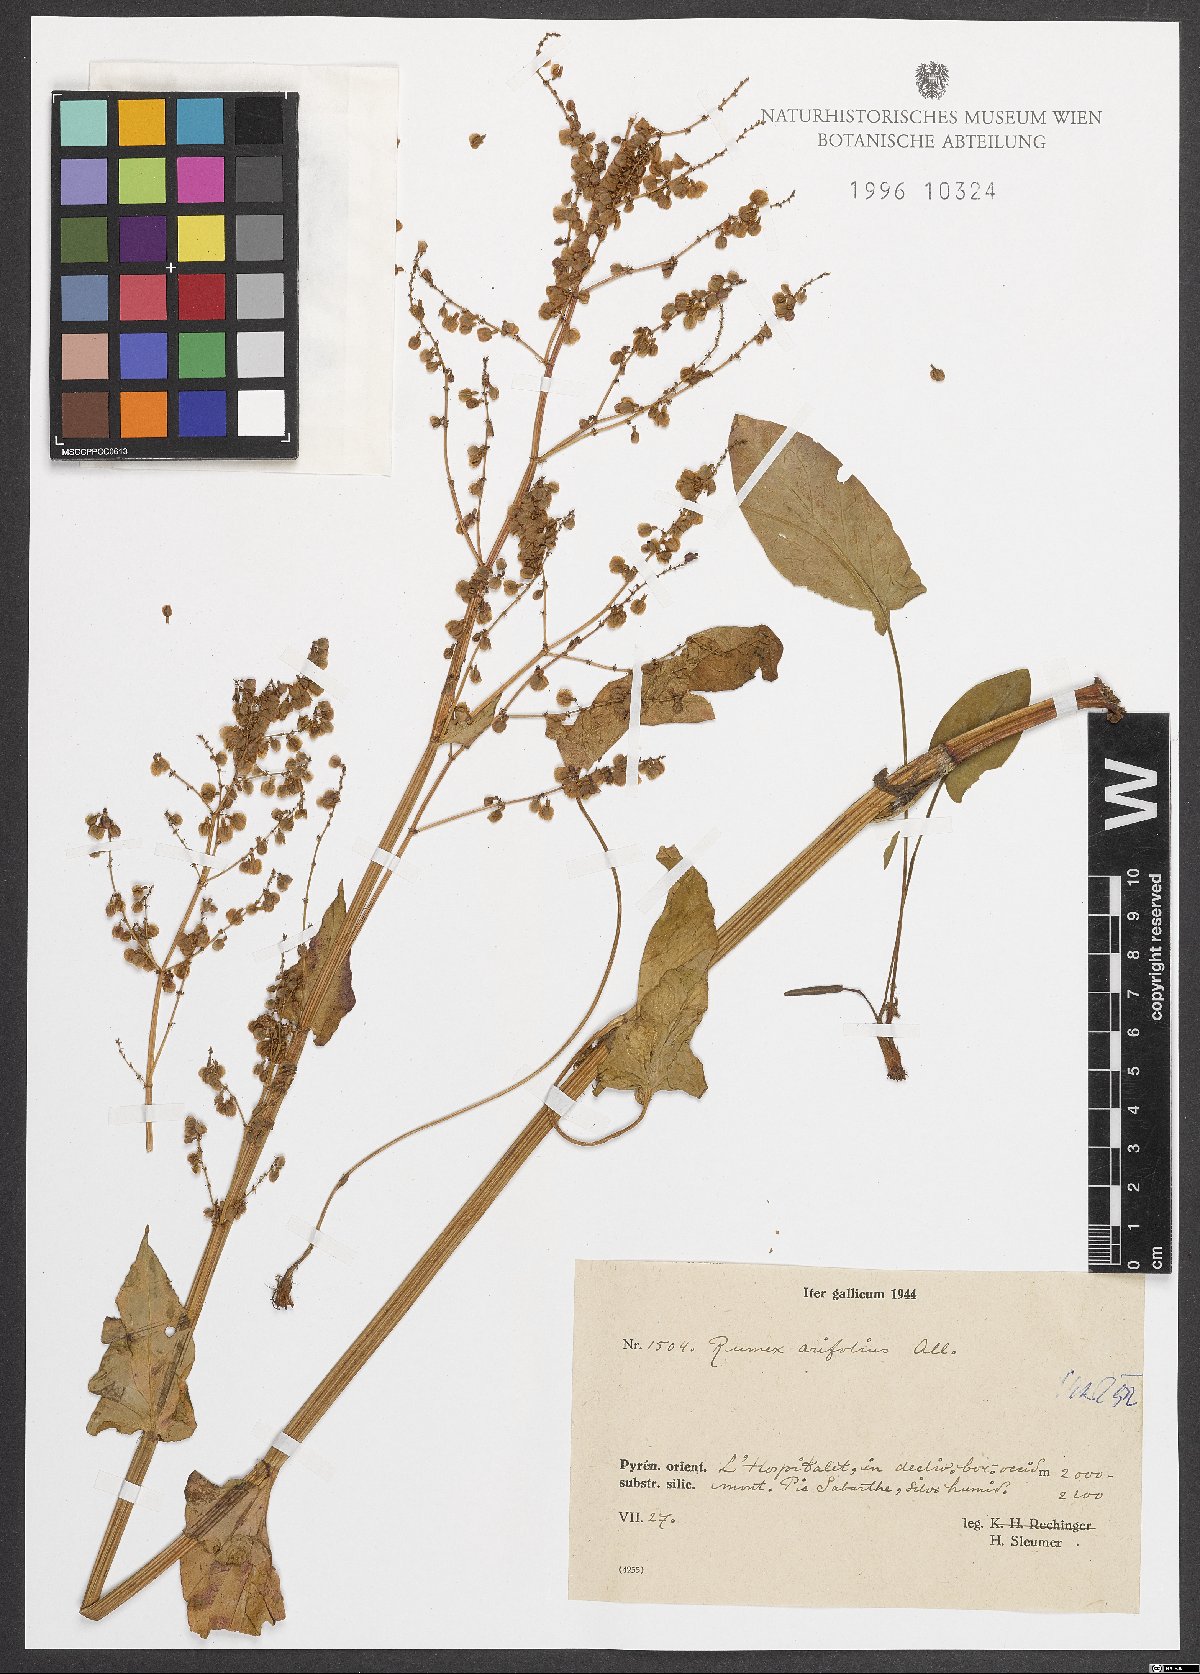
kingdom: Plantae
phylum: Tracheophyta
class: Magnoliopsida
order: Caryophyllales
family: Polygonaceae
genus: Rumex
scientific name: Rumex arifolius
